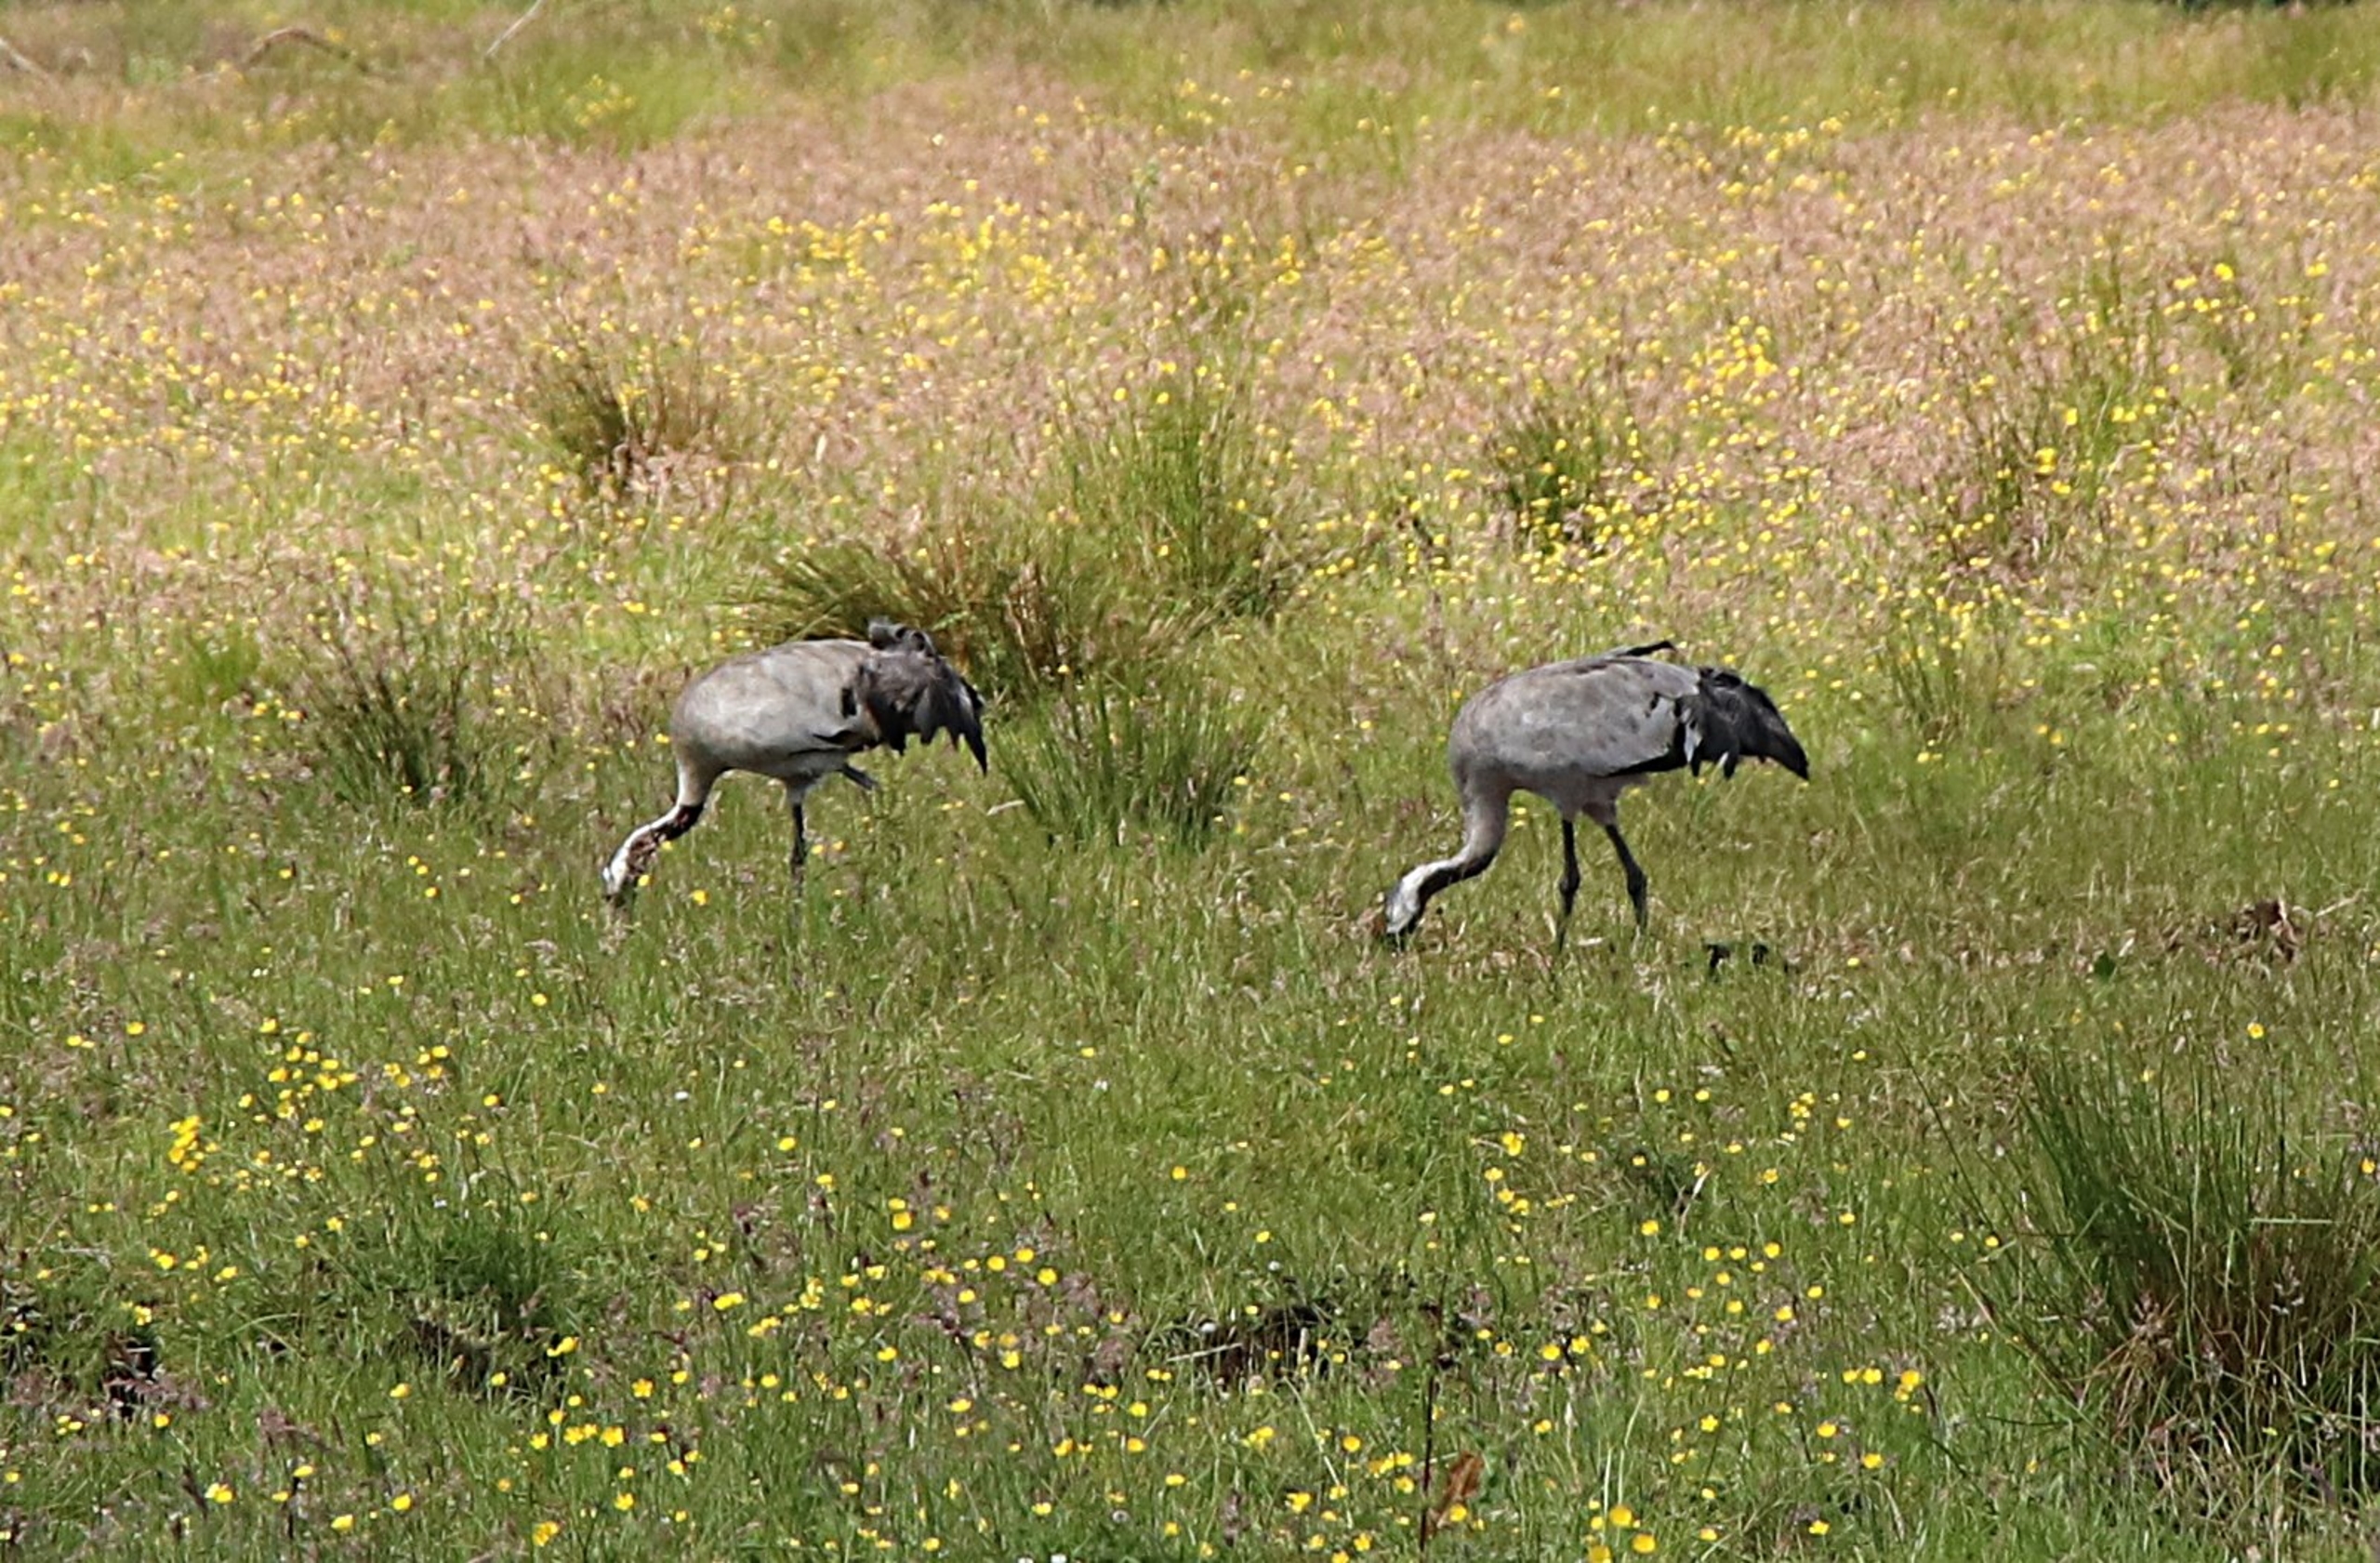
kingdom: Animalia
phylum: Chordata
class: Aves
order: Gruiformes
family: Gruidae
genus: Grus
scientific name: Grus grus
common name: Trane
